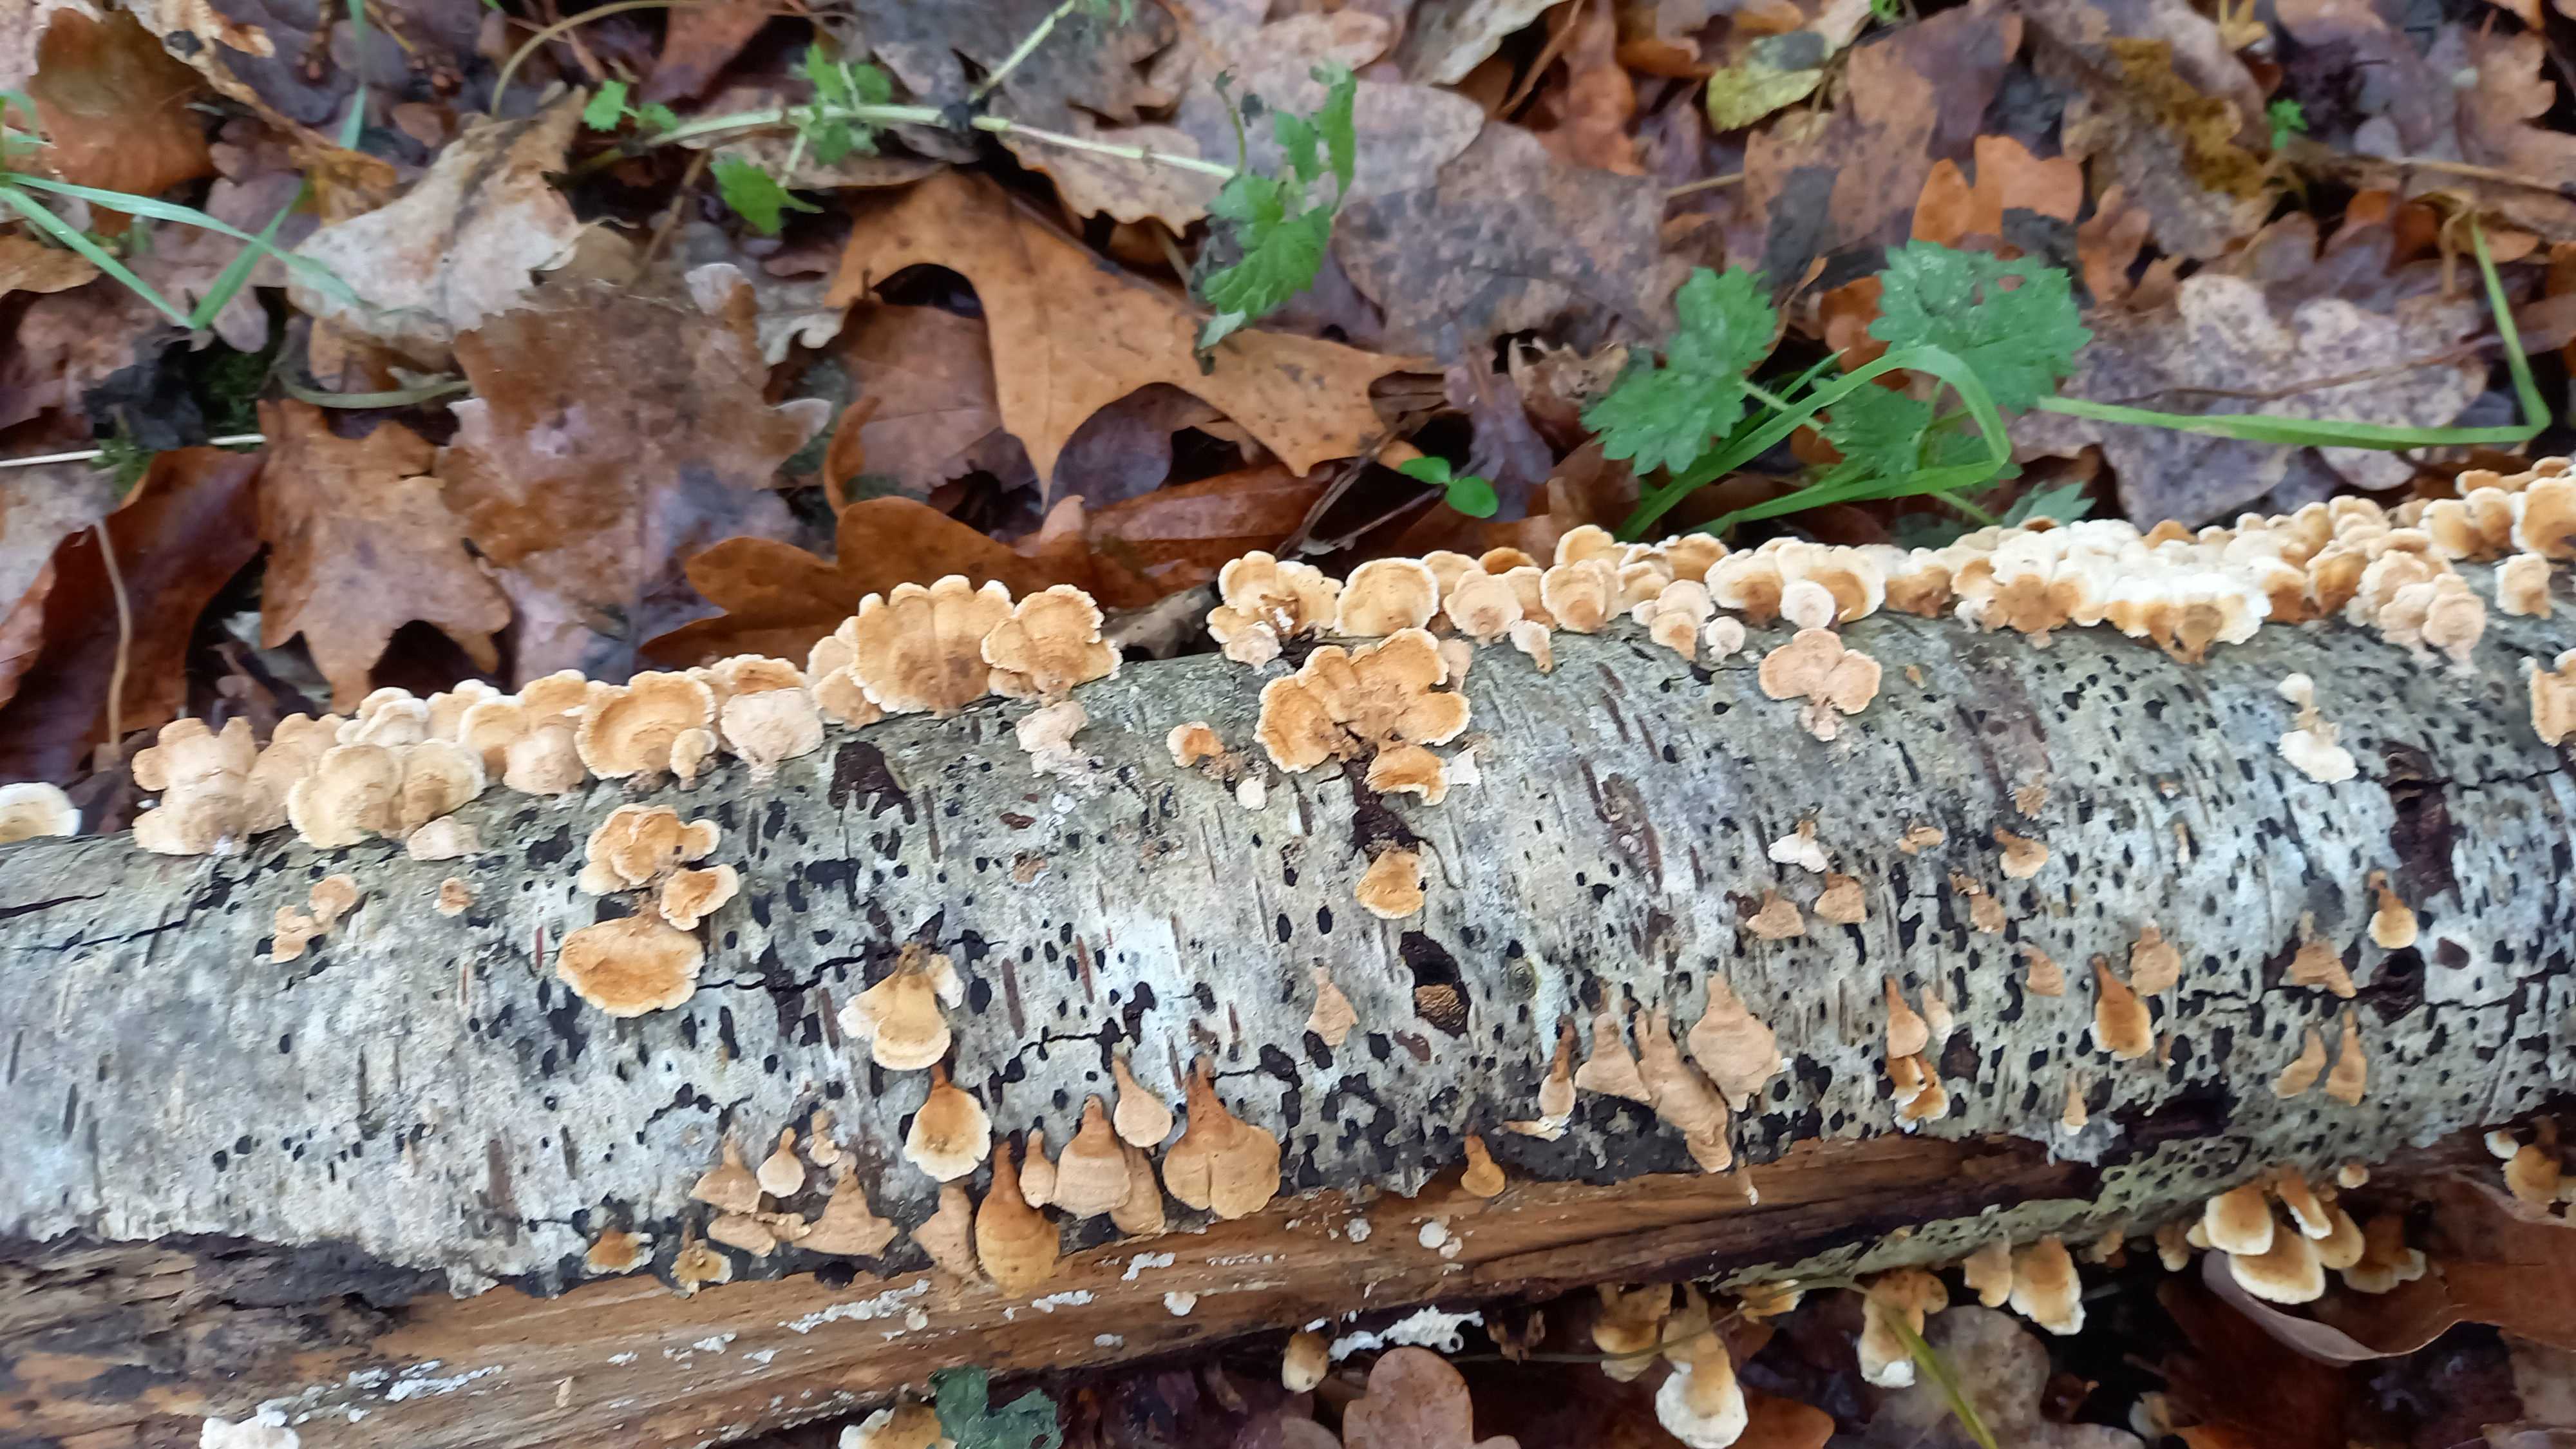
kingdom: Fungi
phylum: Basidiomycota
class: Agaricomycetes
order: Amylocorticiales
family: Amylocorticiaceae
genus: Plicaturopsis
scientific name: Plicaturopsis crispa
